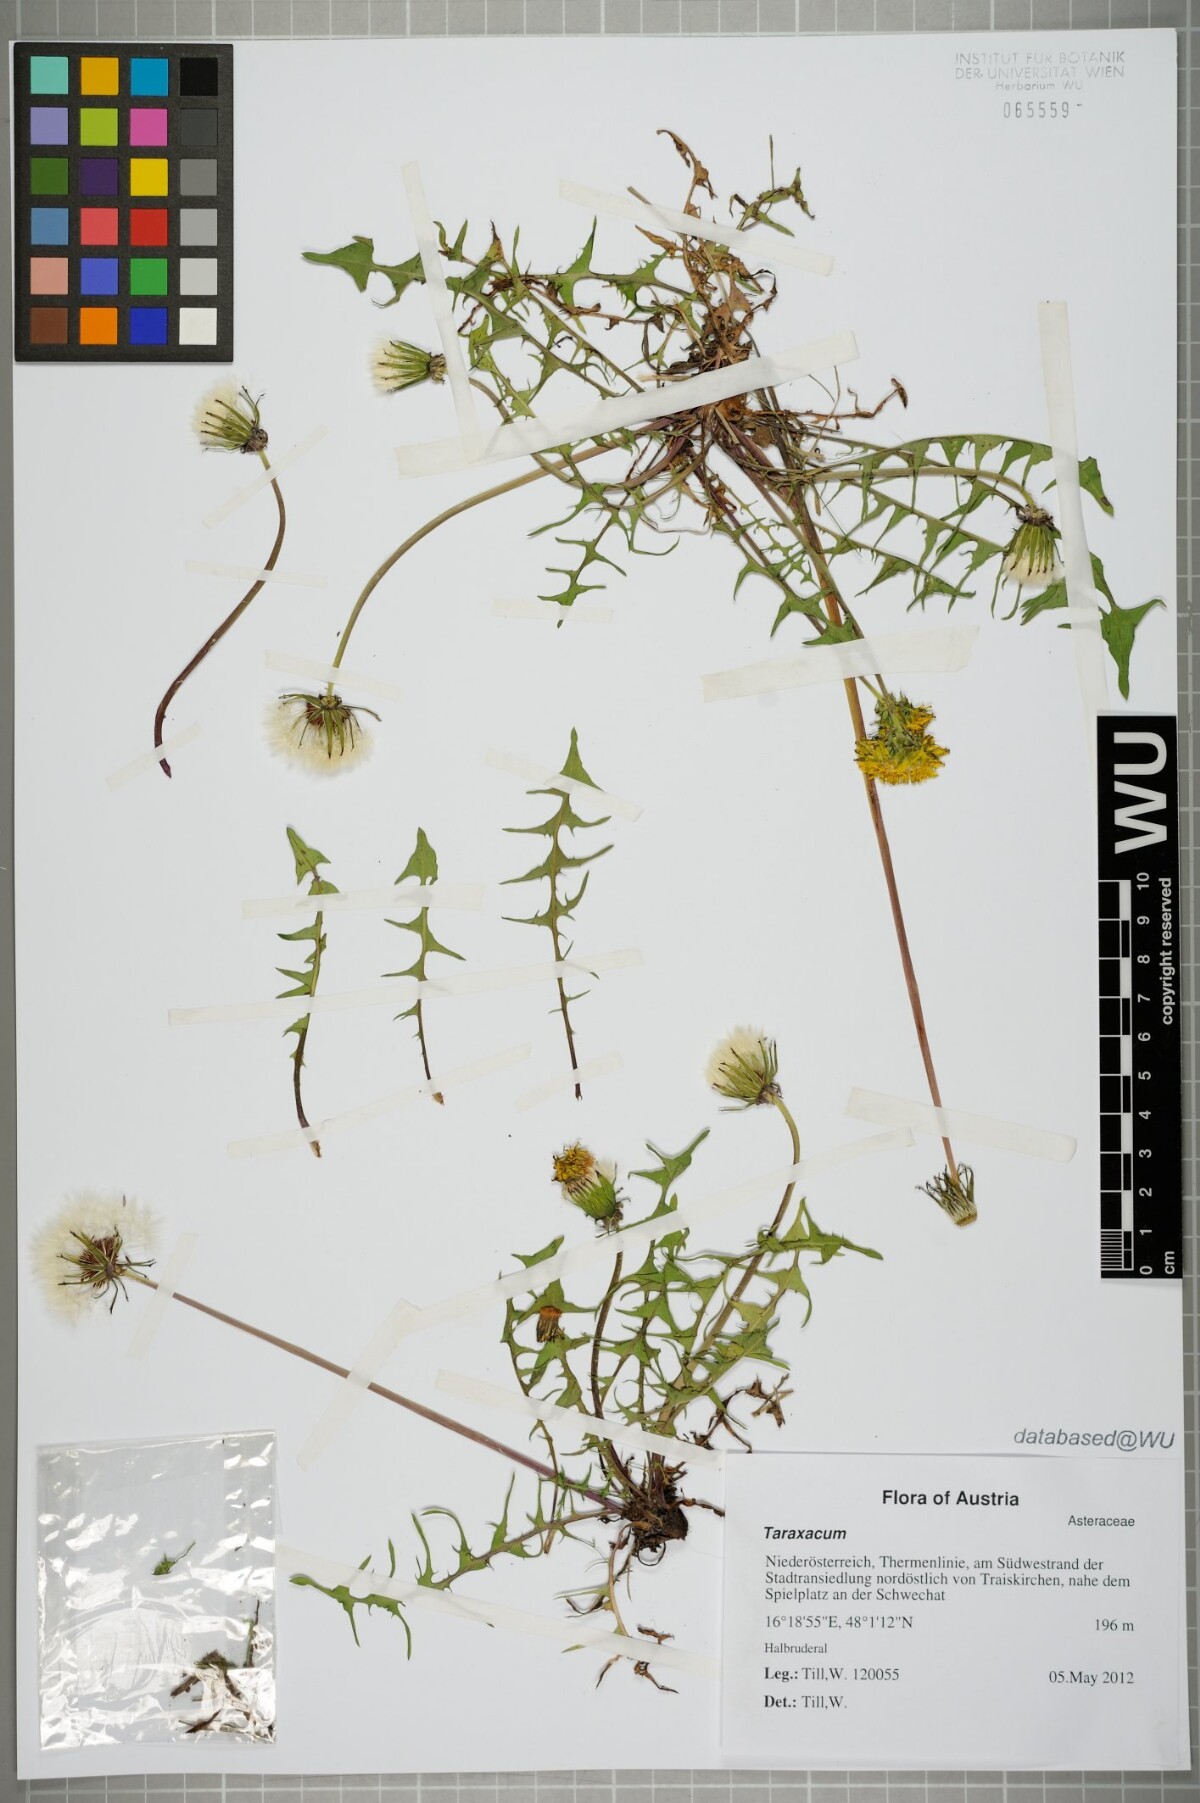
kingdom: Plantae
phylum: Tracheophyta
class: Magnoliopsida
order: Asterales
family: Asteraceae
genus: Taraxacum
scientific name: Taraxacum
